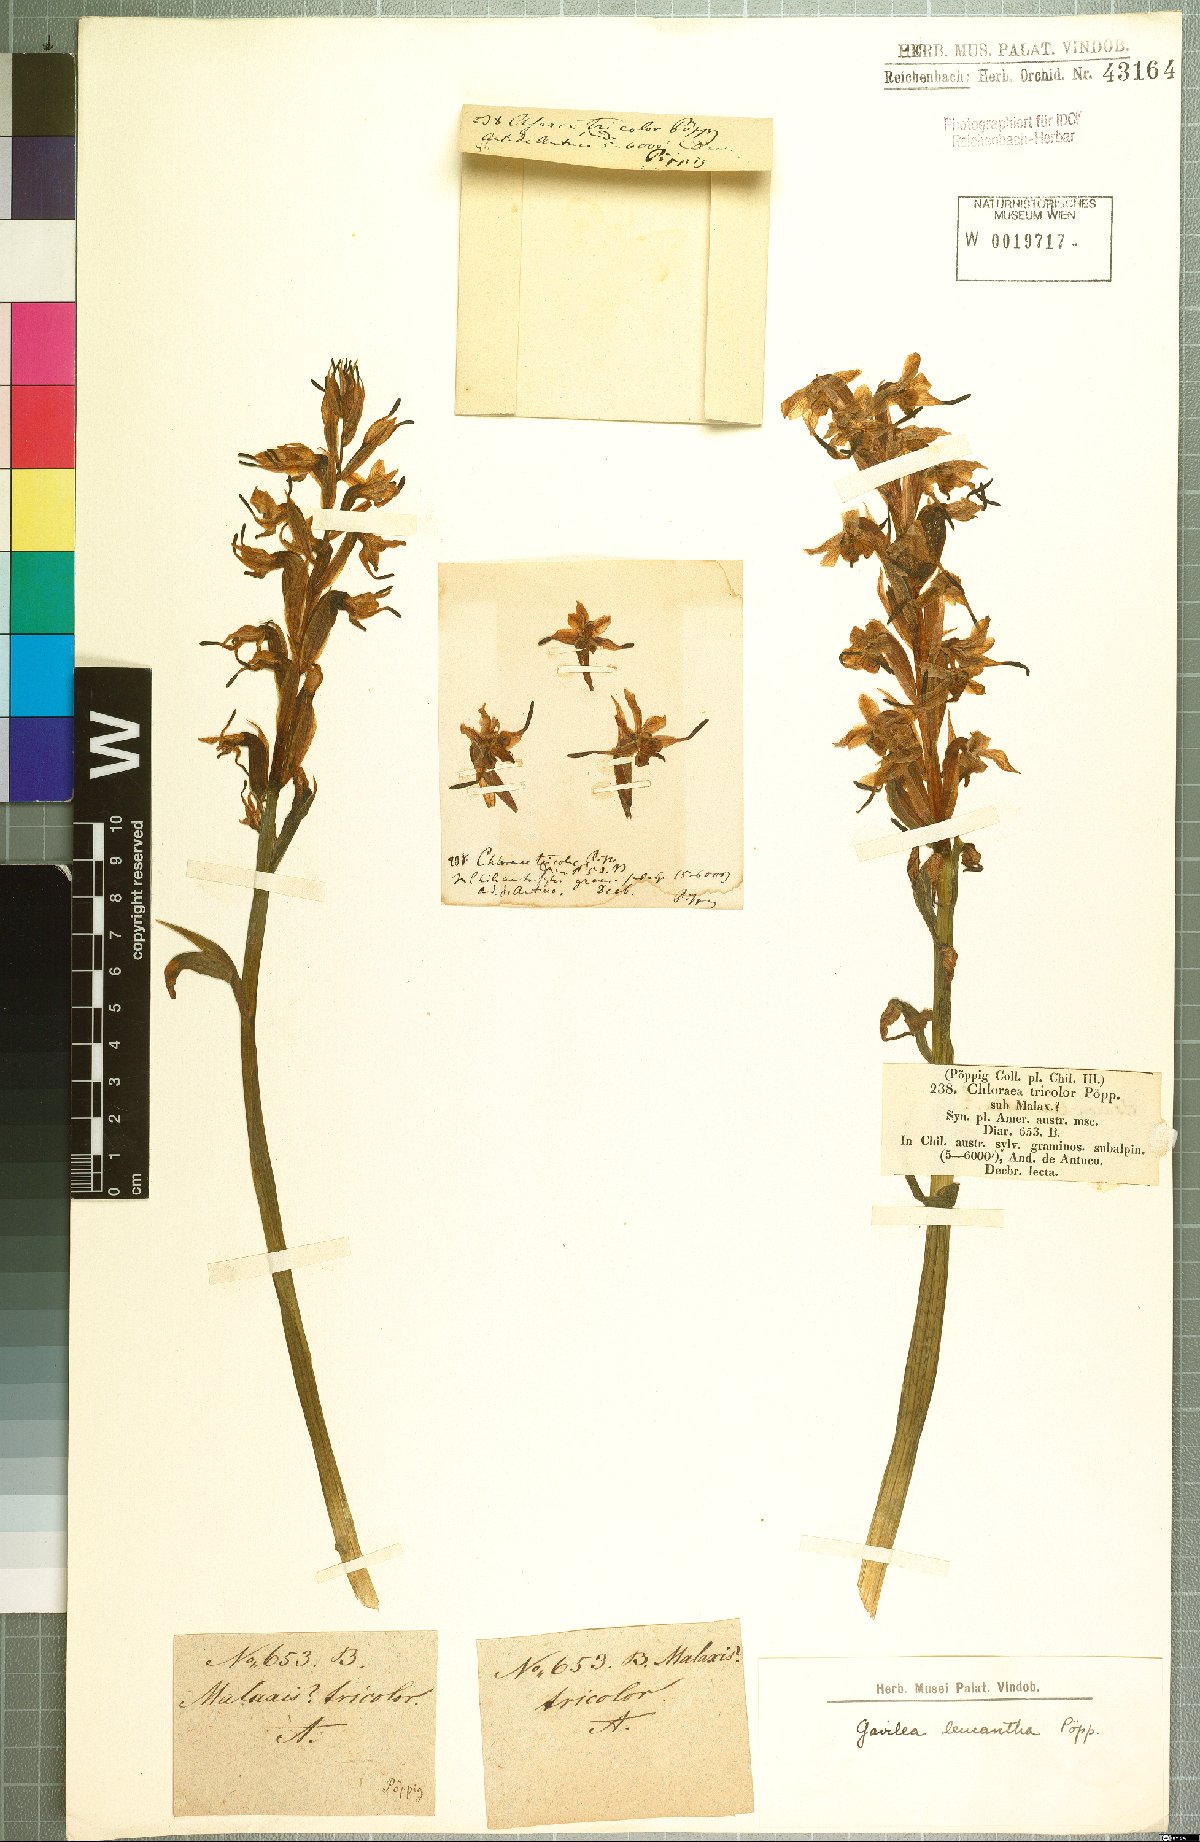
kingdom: Plantae
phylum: Tracheophyta
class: Liliopsida
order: Asparagales
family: Orchidaceae
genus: Gavilea
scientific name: Gavilea venosa
